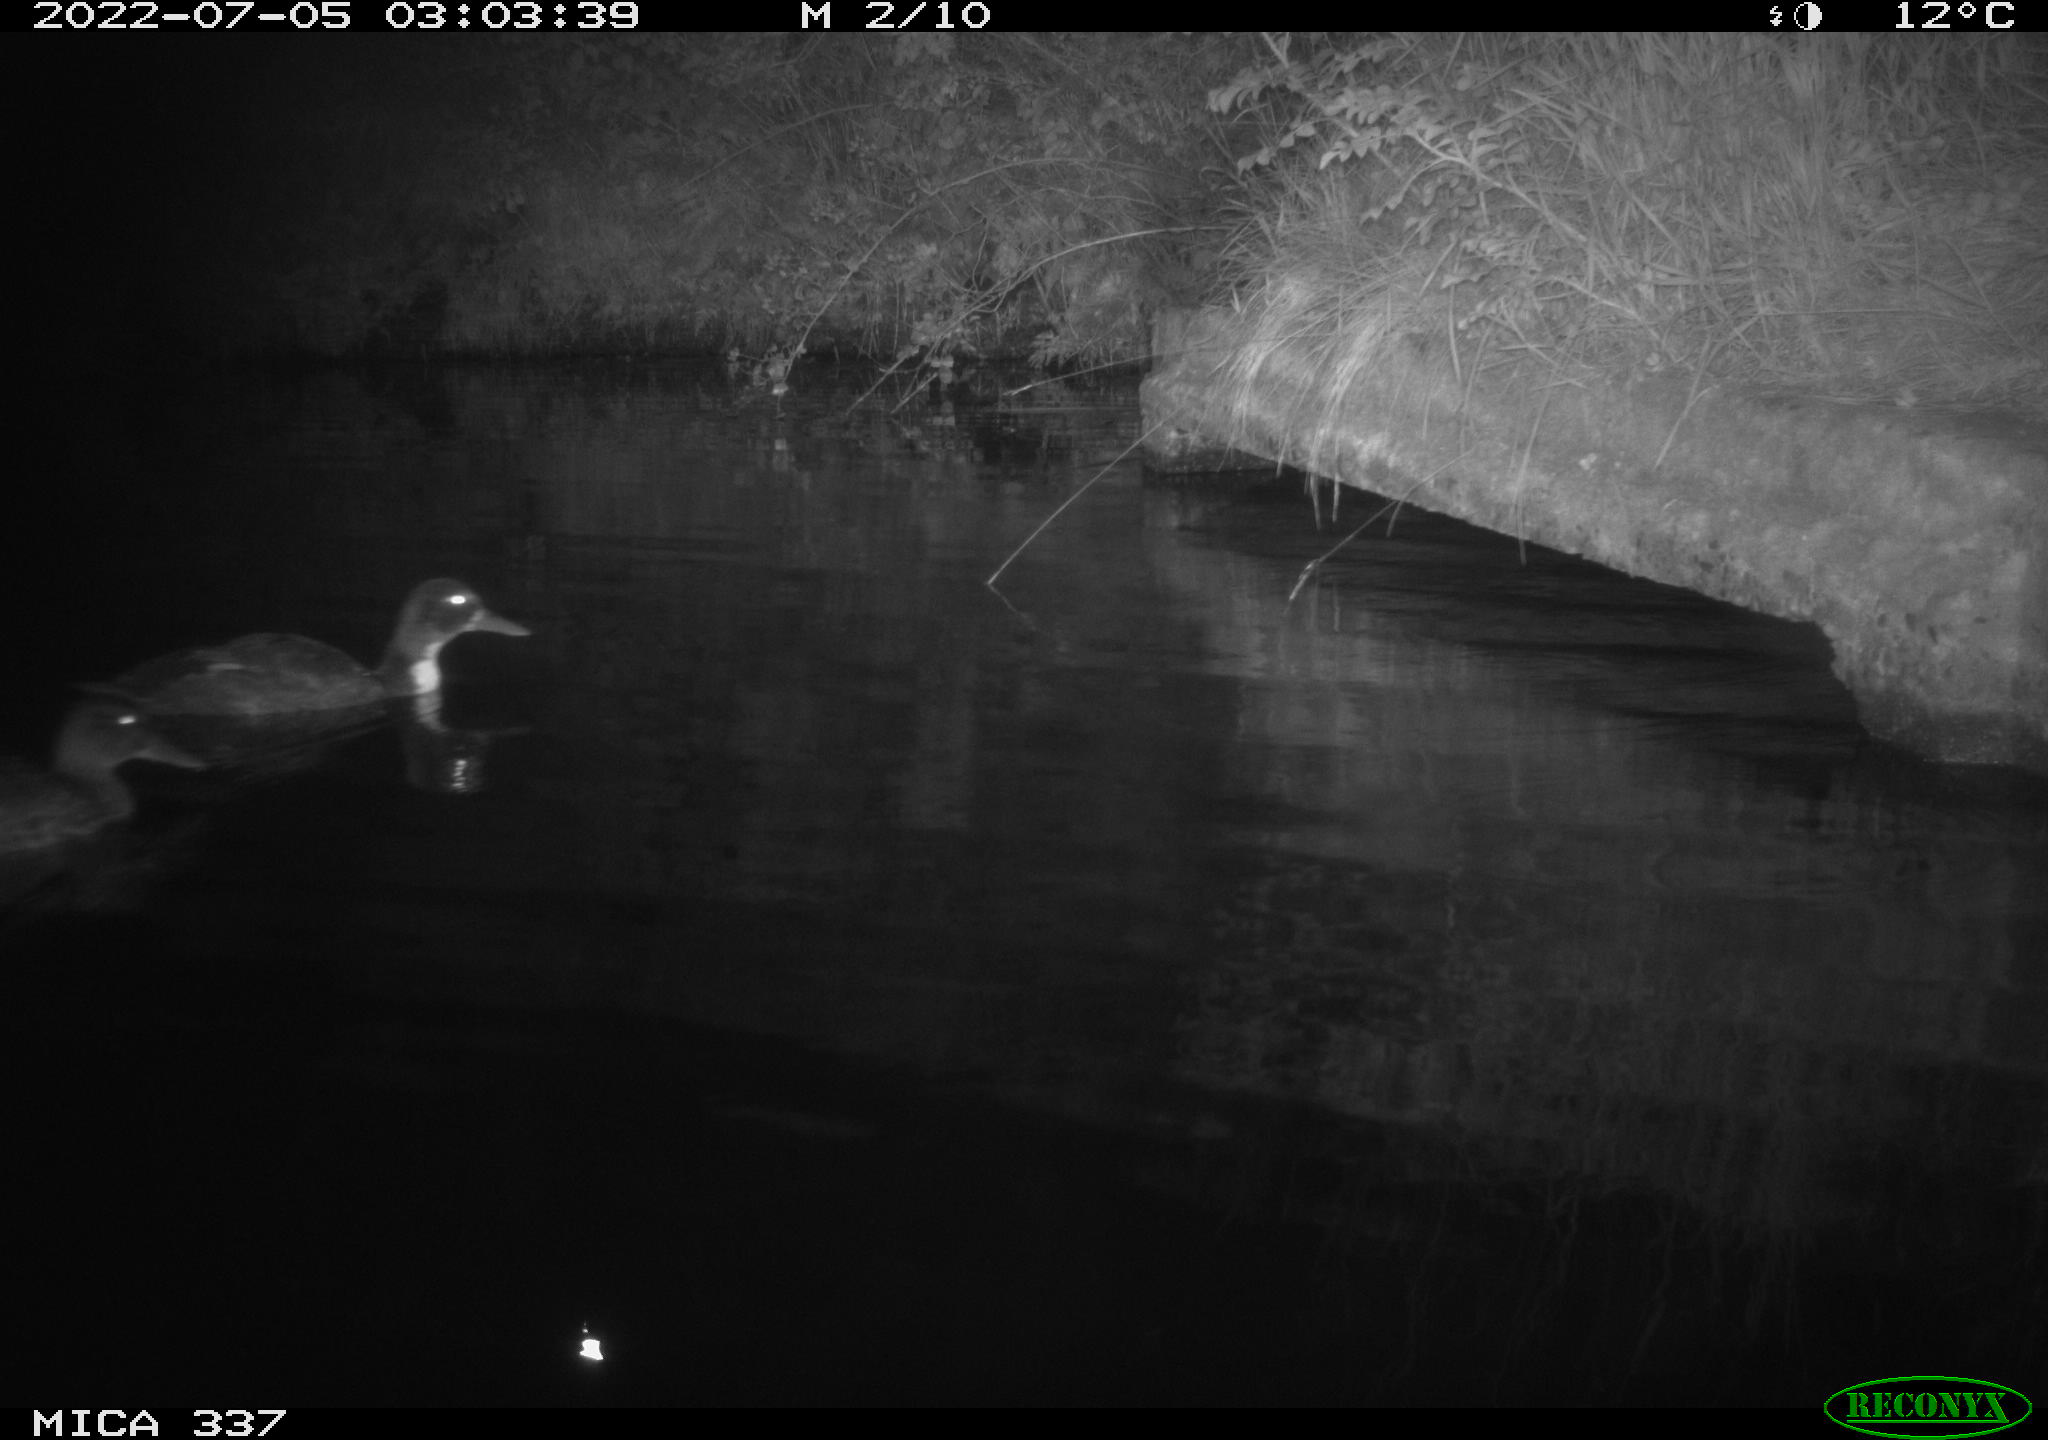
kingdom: Animalia
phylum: Chordata
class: Aves
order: Anseriformes
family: Anatidae
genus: Anas
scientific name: Anas platyrhynchos
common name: Mallard
